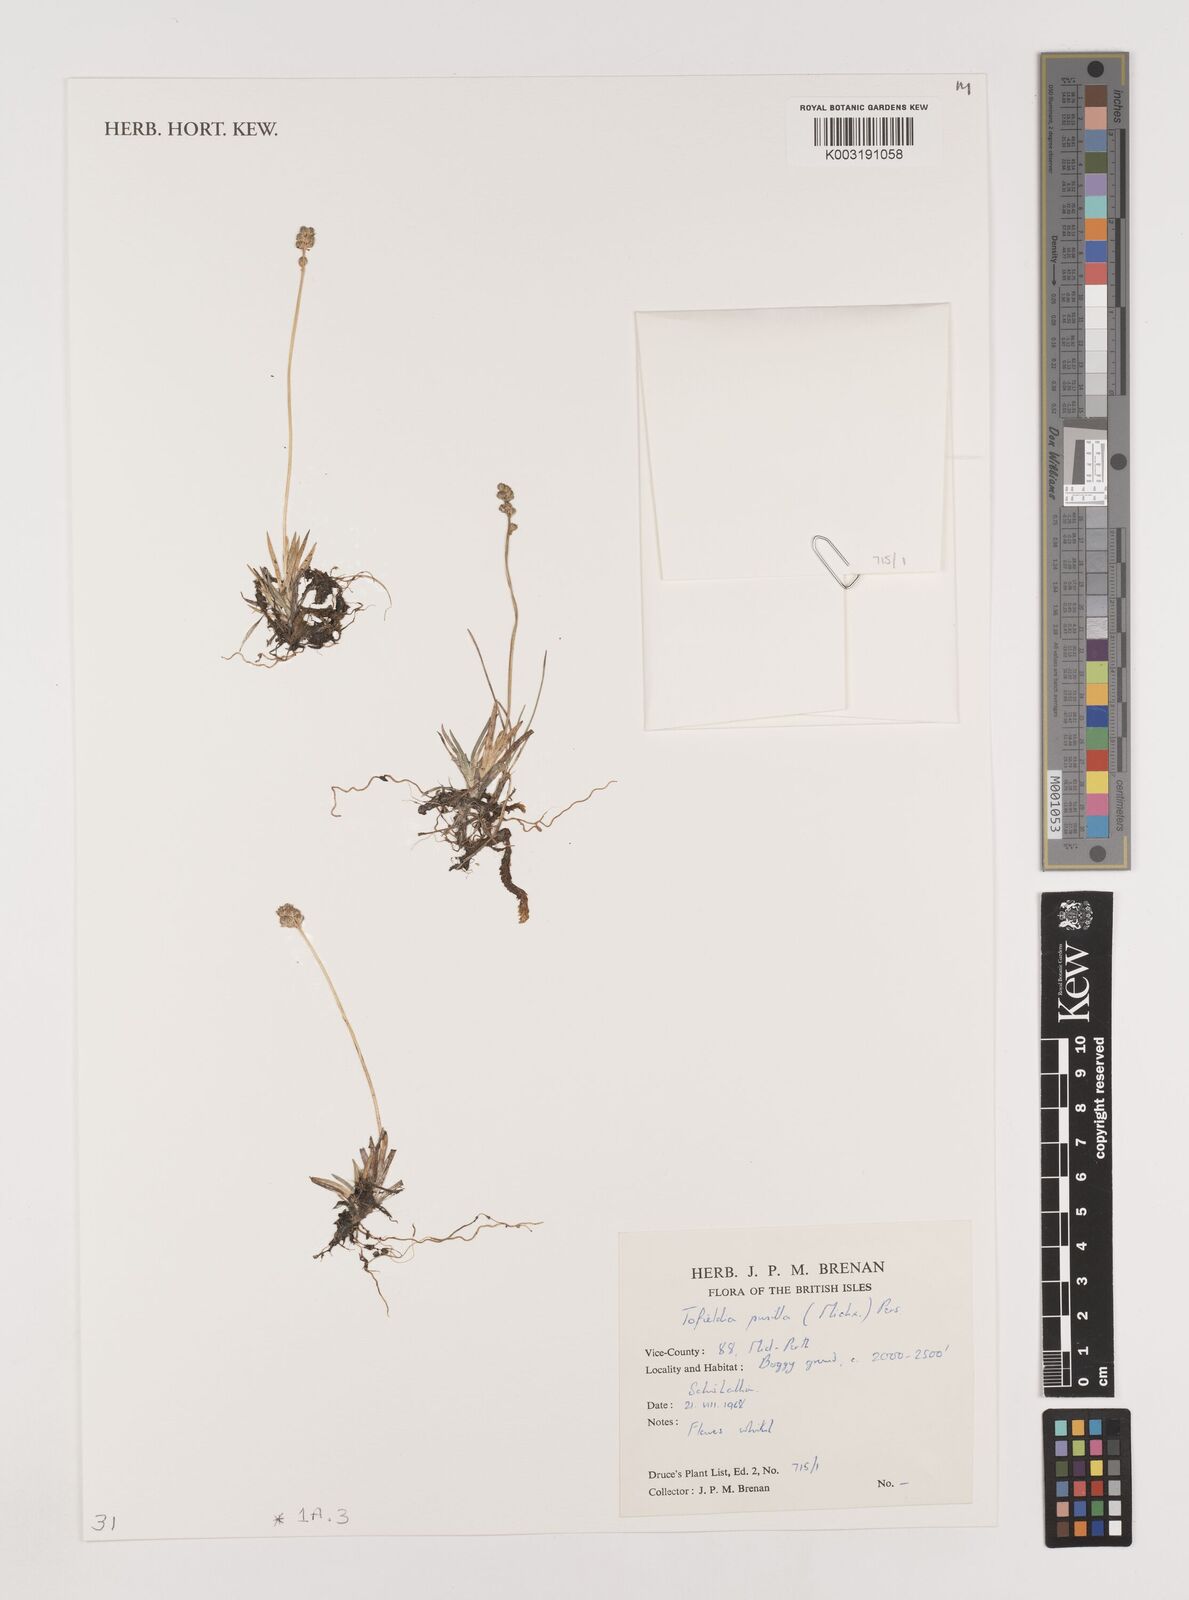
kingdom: Plantae
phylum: Tracheophyta
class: Liliopsida
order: Alismatales
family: Tofieldiaceae
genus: Tofieldia
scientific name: Tofieldia pusilla
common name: Scottish false asphodel
